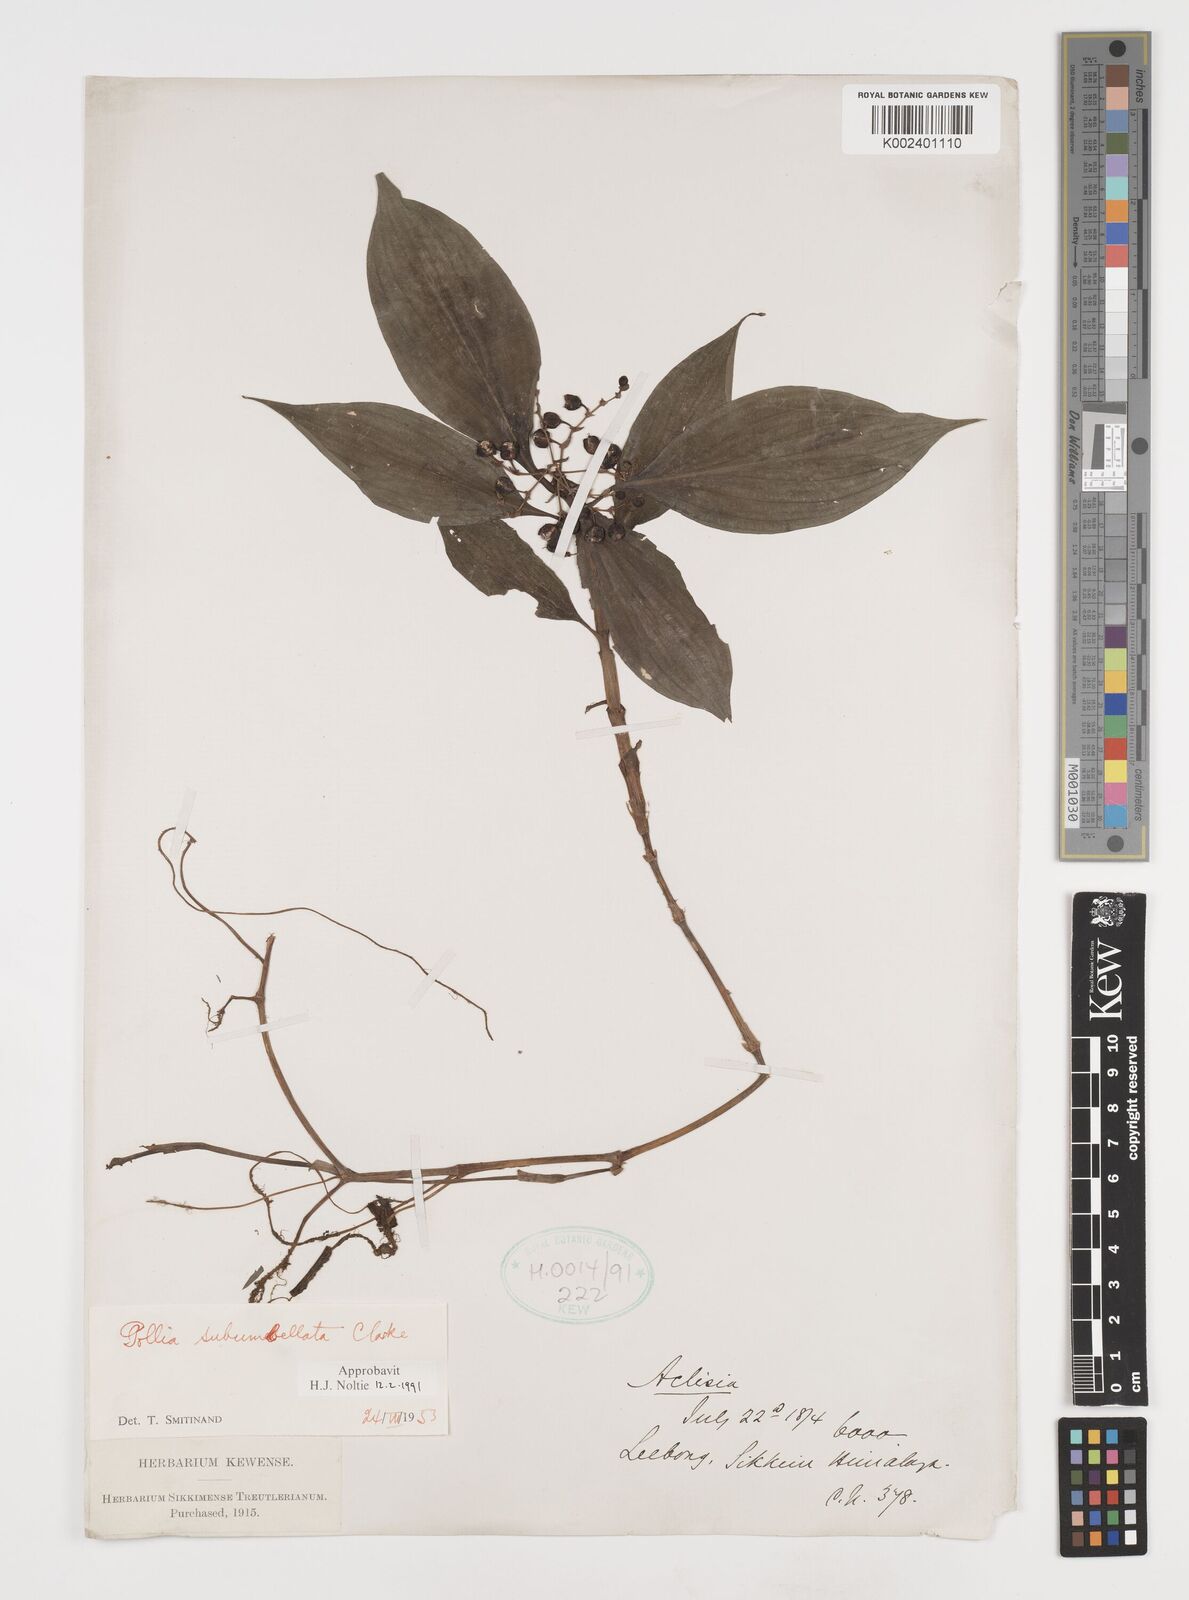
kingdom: Plantae
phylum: Tracheophyta
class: Liliopsida
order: Commelinales
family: Commelinaceae
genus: Pollia
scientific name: Pollia subumbellata
